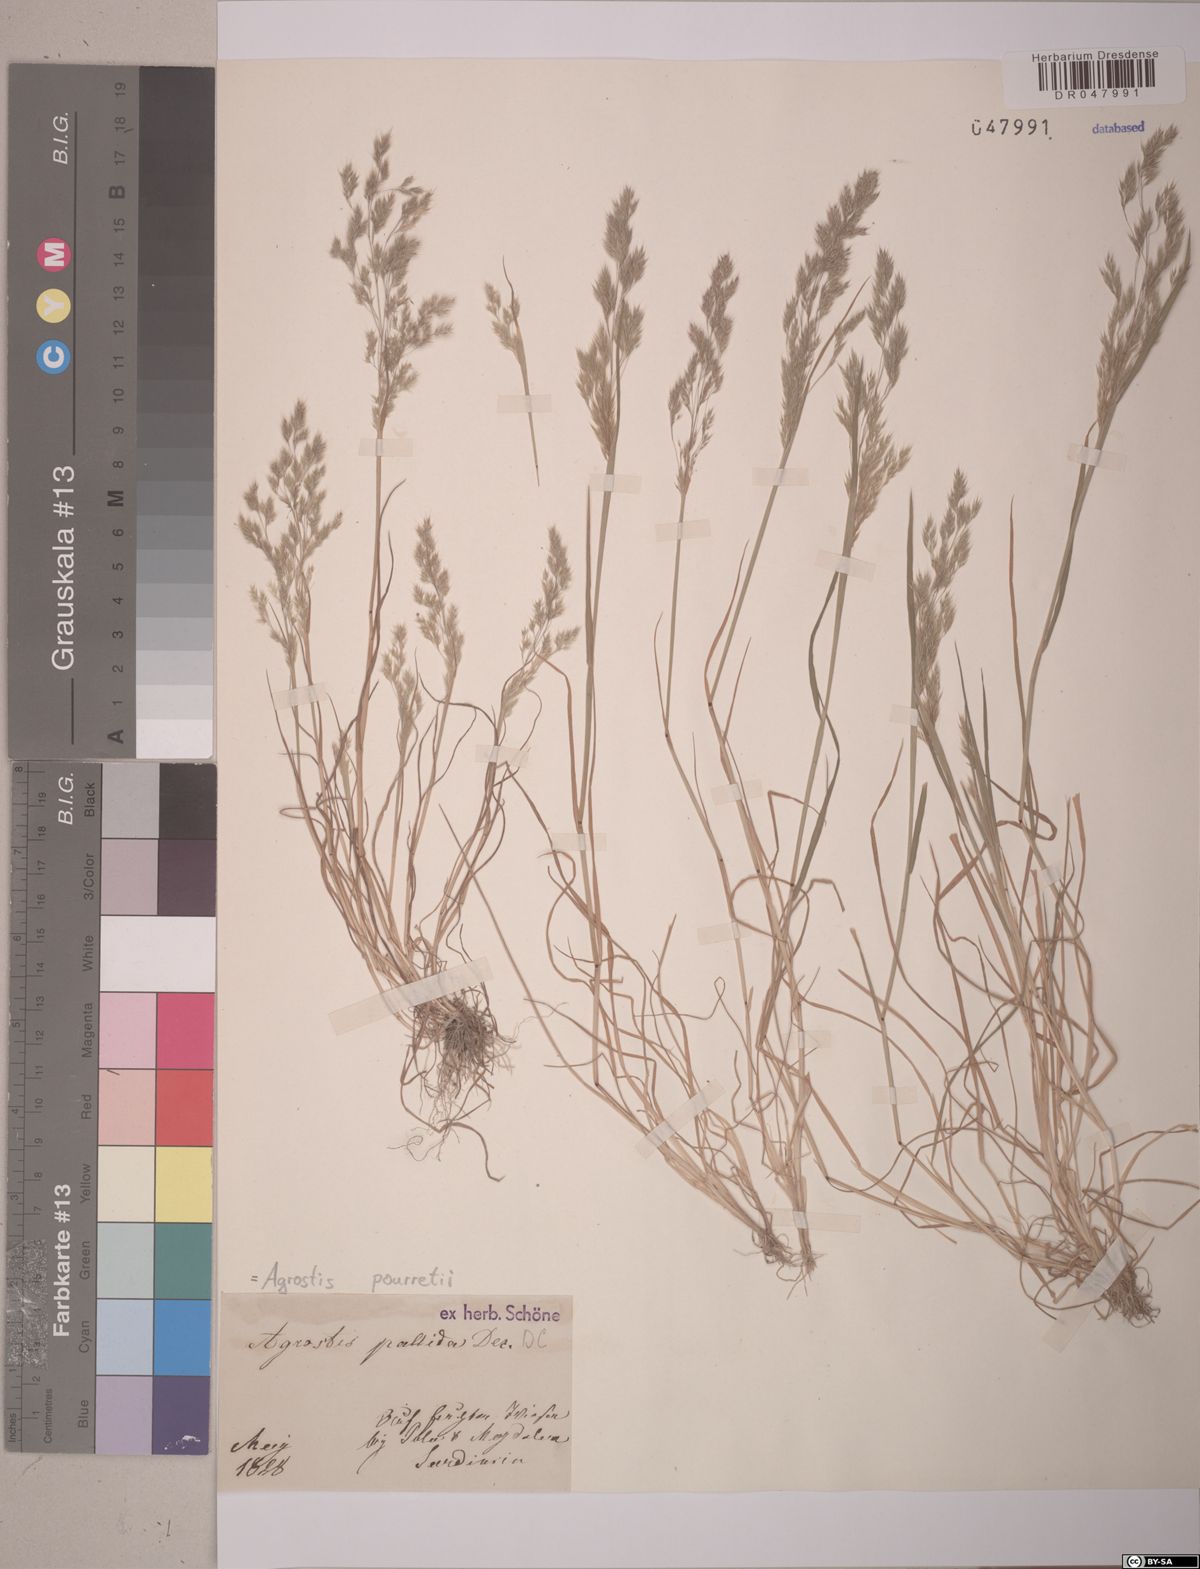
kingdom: Plantae
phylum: Tracheophyta
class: Liliopsida
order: Poales
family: Poaceae
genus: Agrostis
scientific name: Agrostis pourretii
